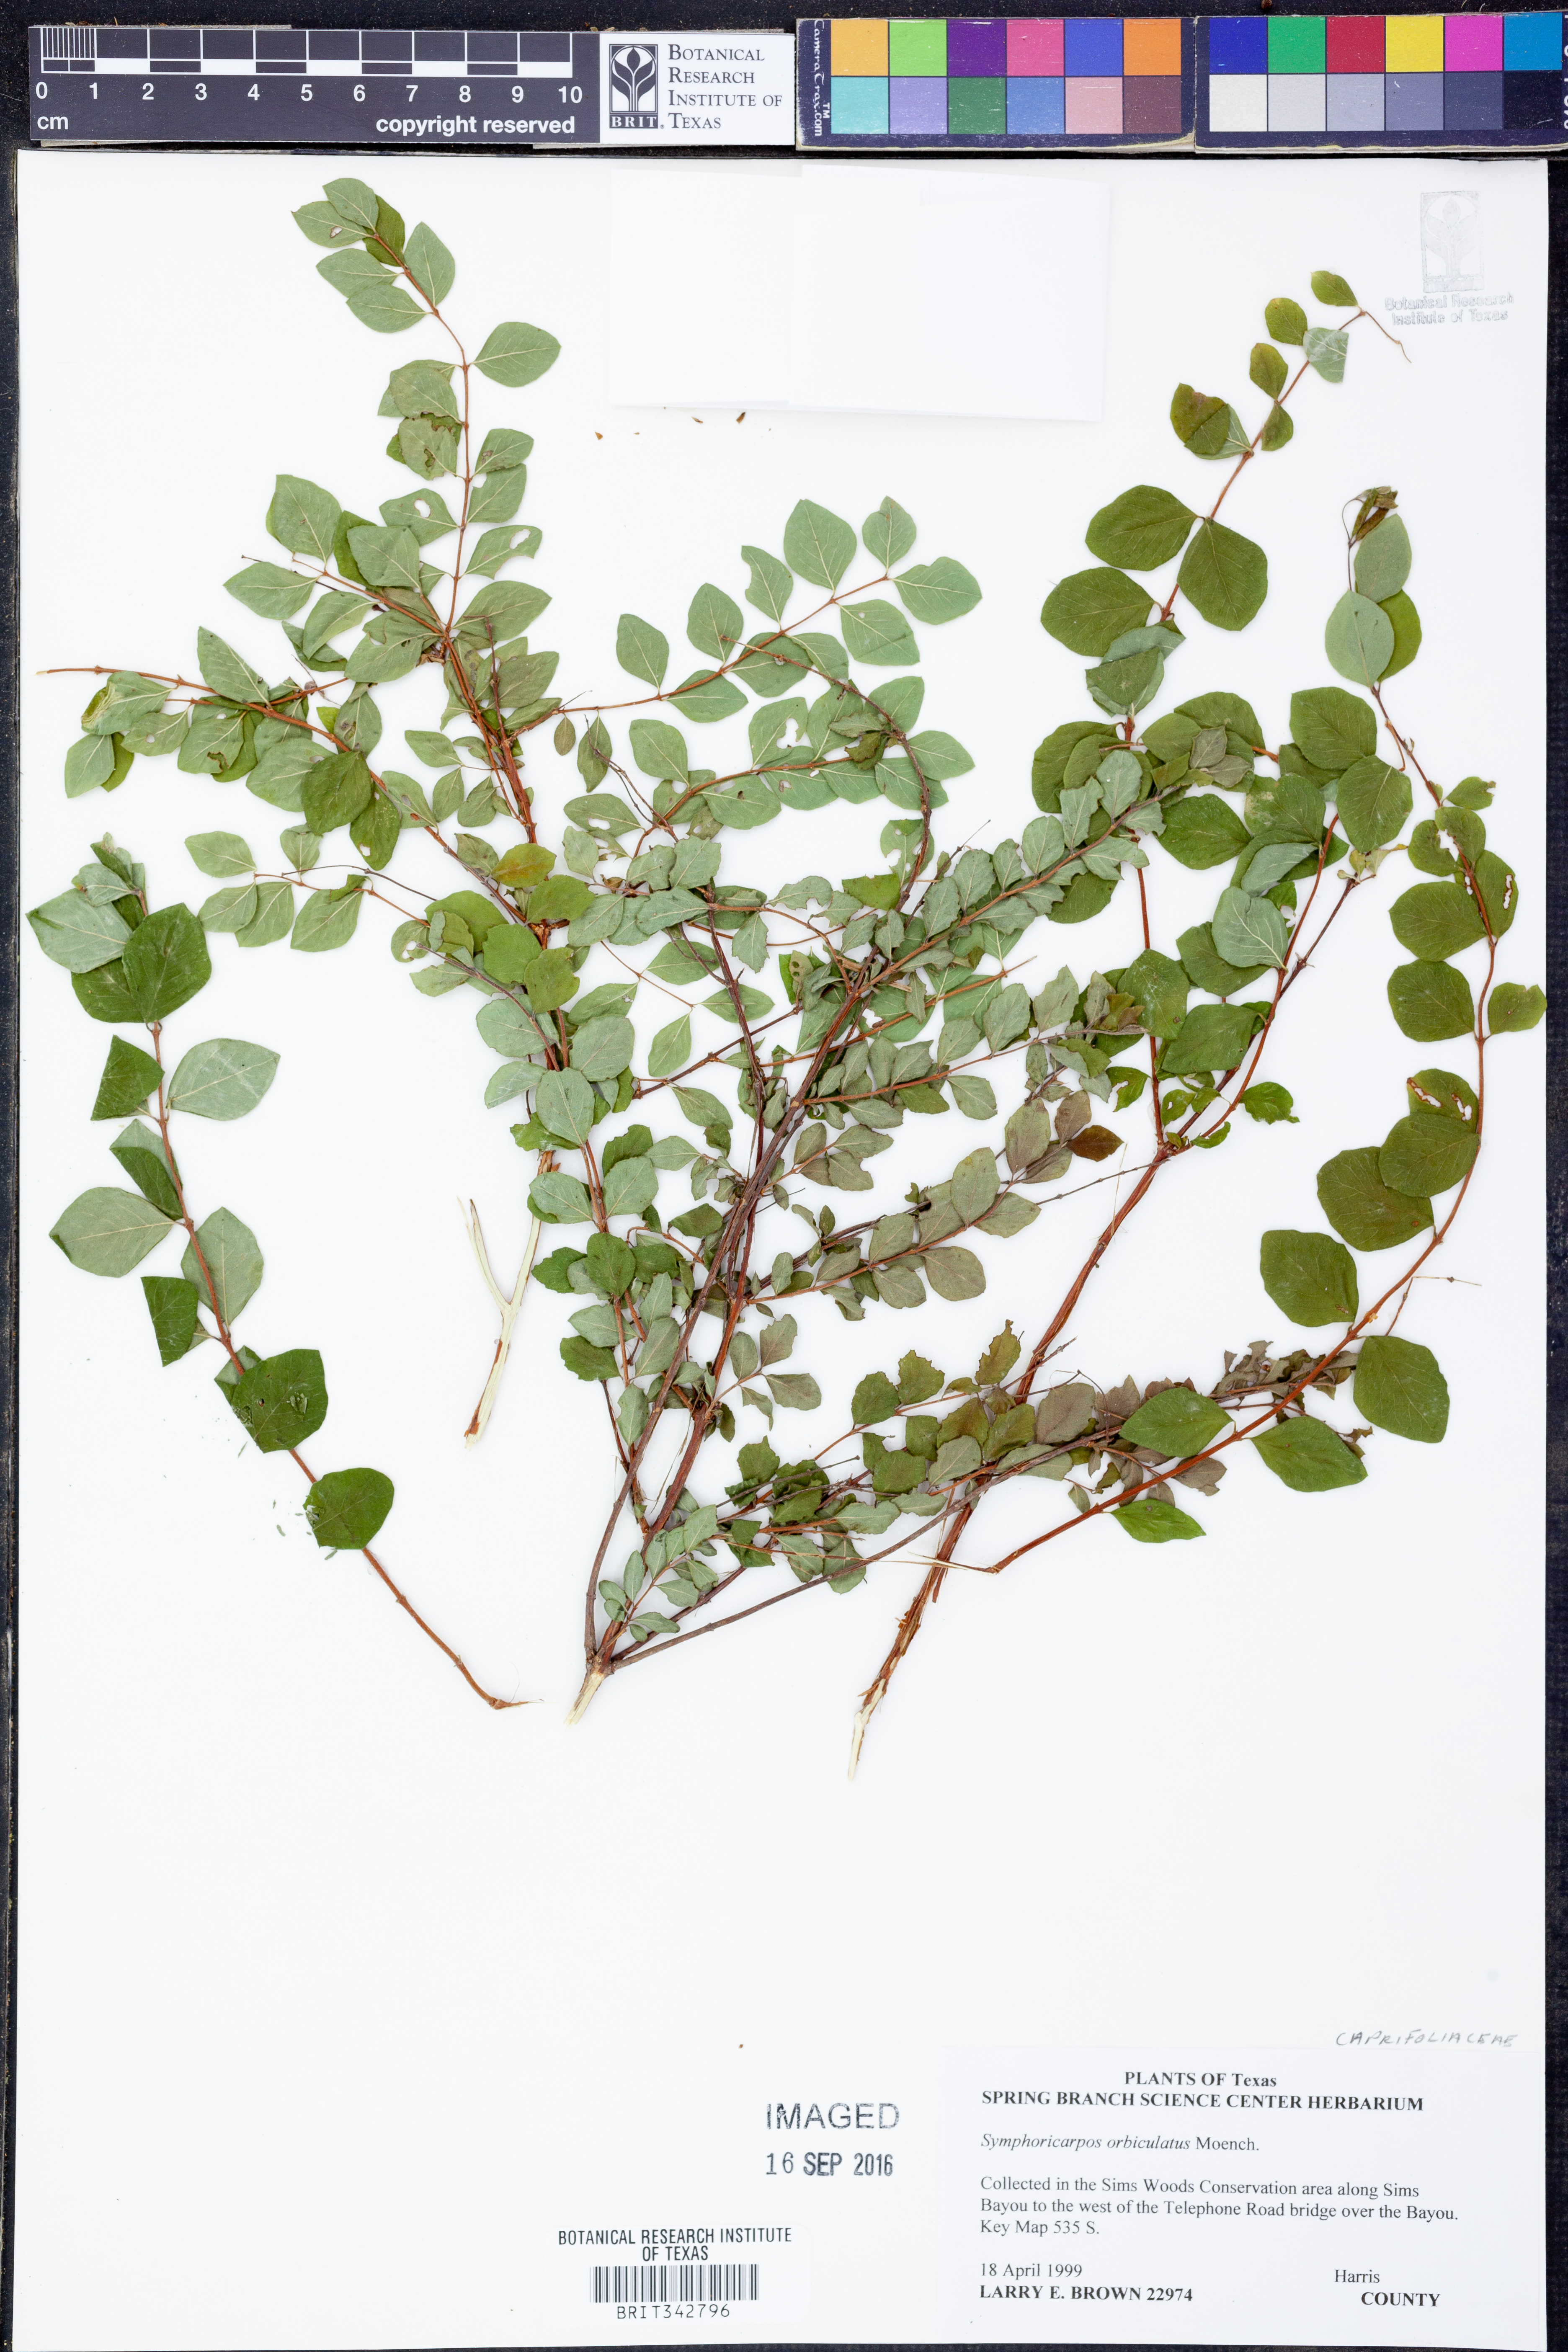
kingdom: Plantae
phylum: Tracheophyta
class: Magnoliopsida
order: Dipsacales
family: Caprifoliaceae
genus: Symphoricarpos
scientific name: Symphoricarpos orbiculatus
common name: Coralberry
